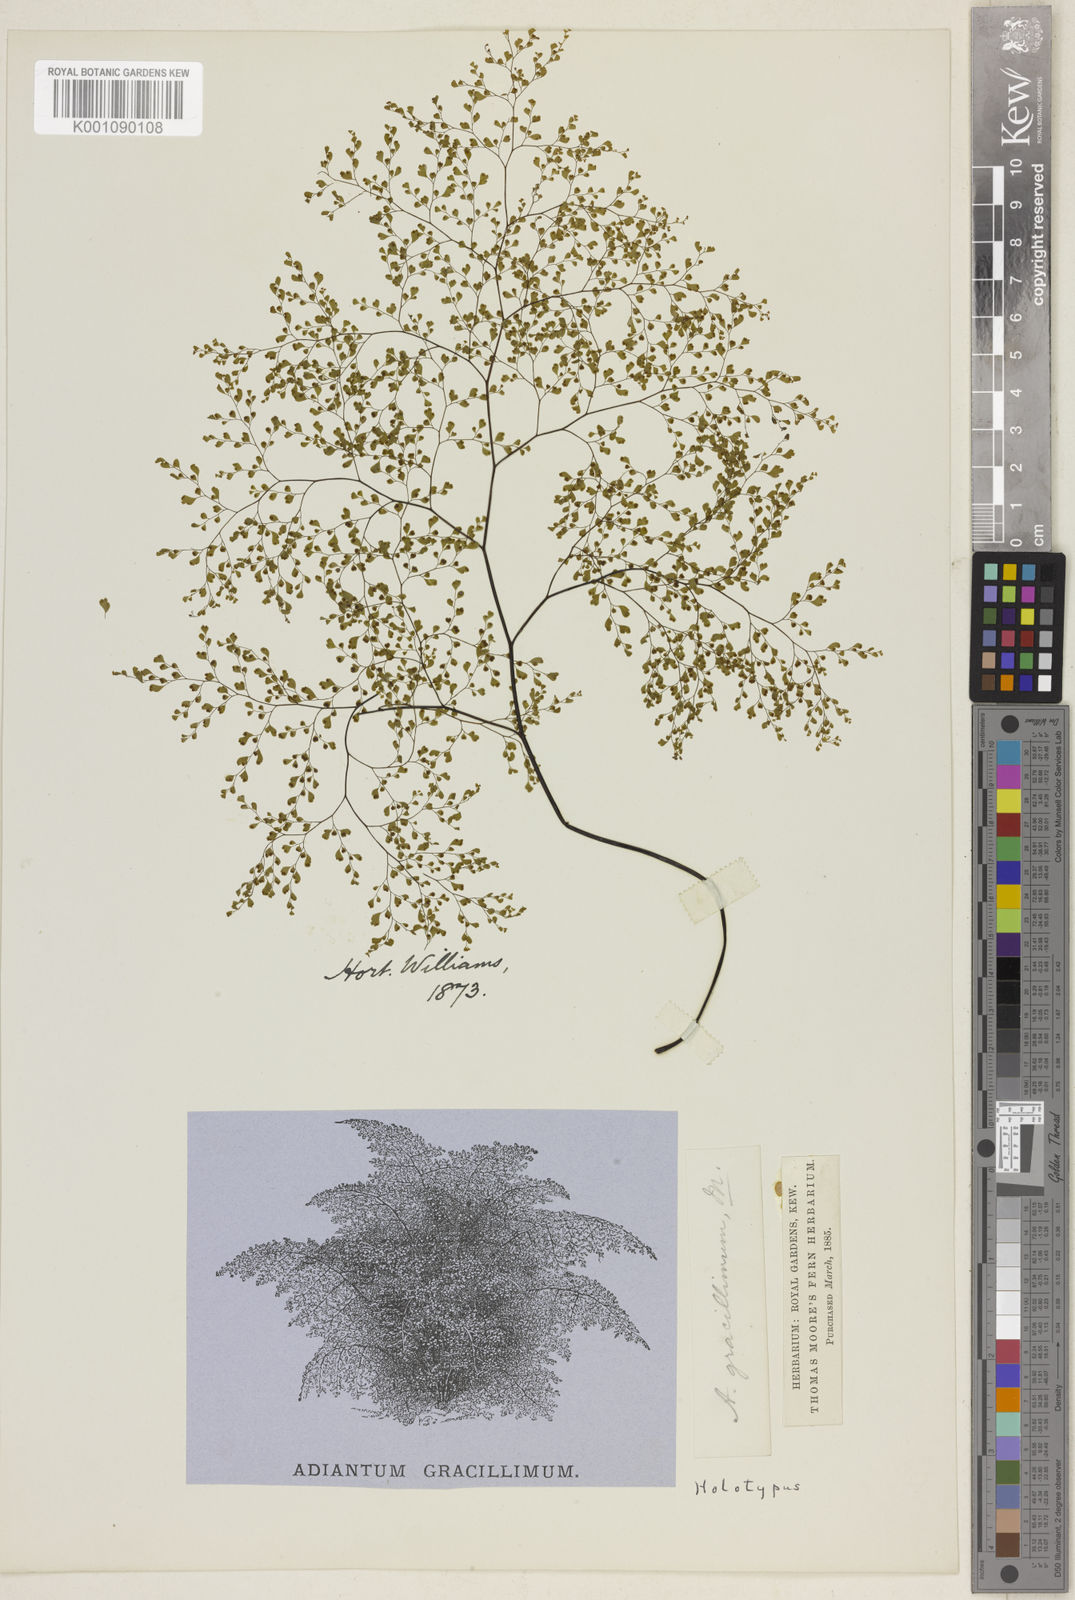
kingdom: Plantae
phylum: Tracheophyta
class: Polypodiopsida
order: Polypodiales
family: Pteridaceae
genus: Adiantum
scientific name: Adiantum raddianum
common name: Delta maidenhair fern
